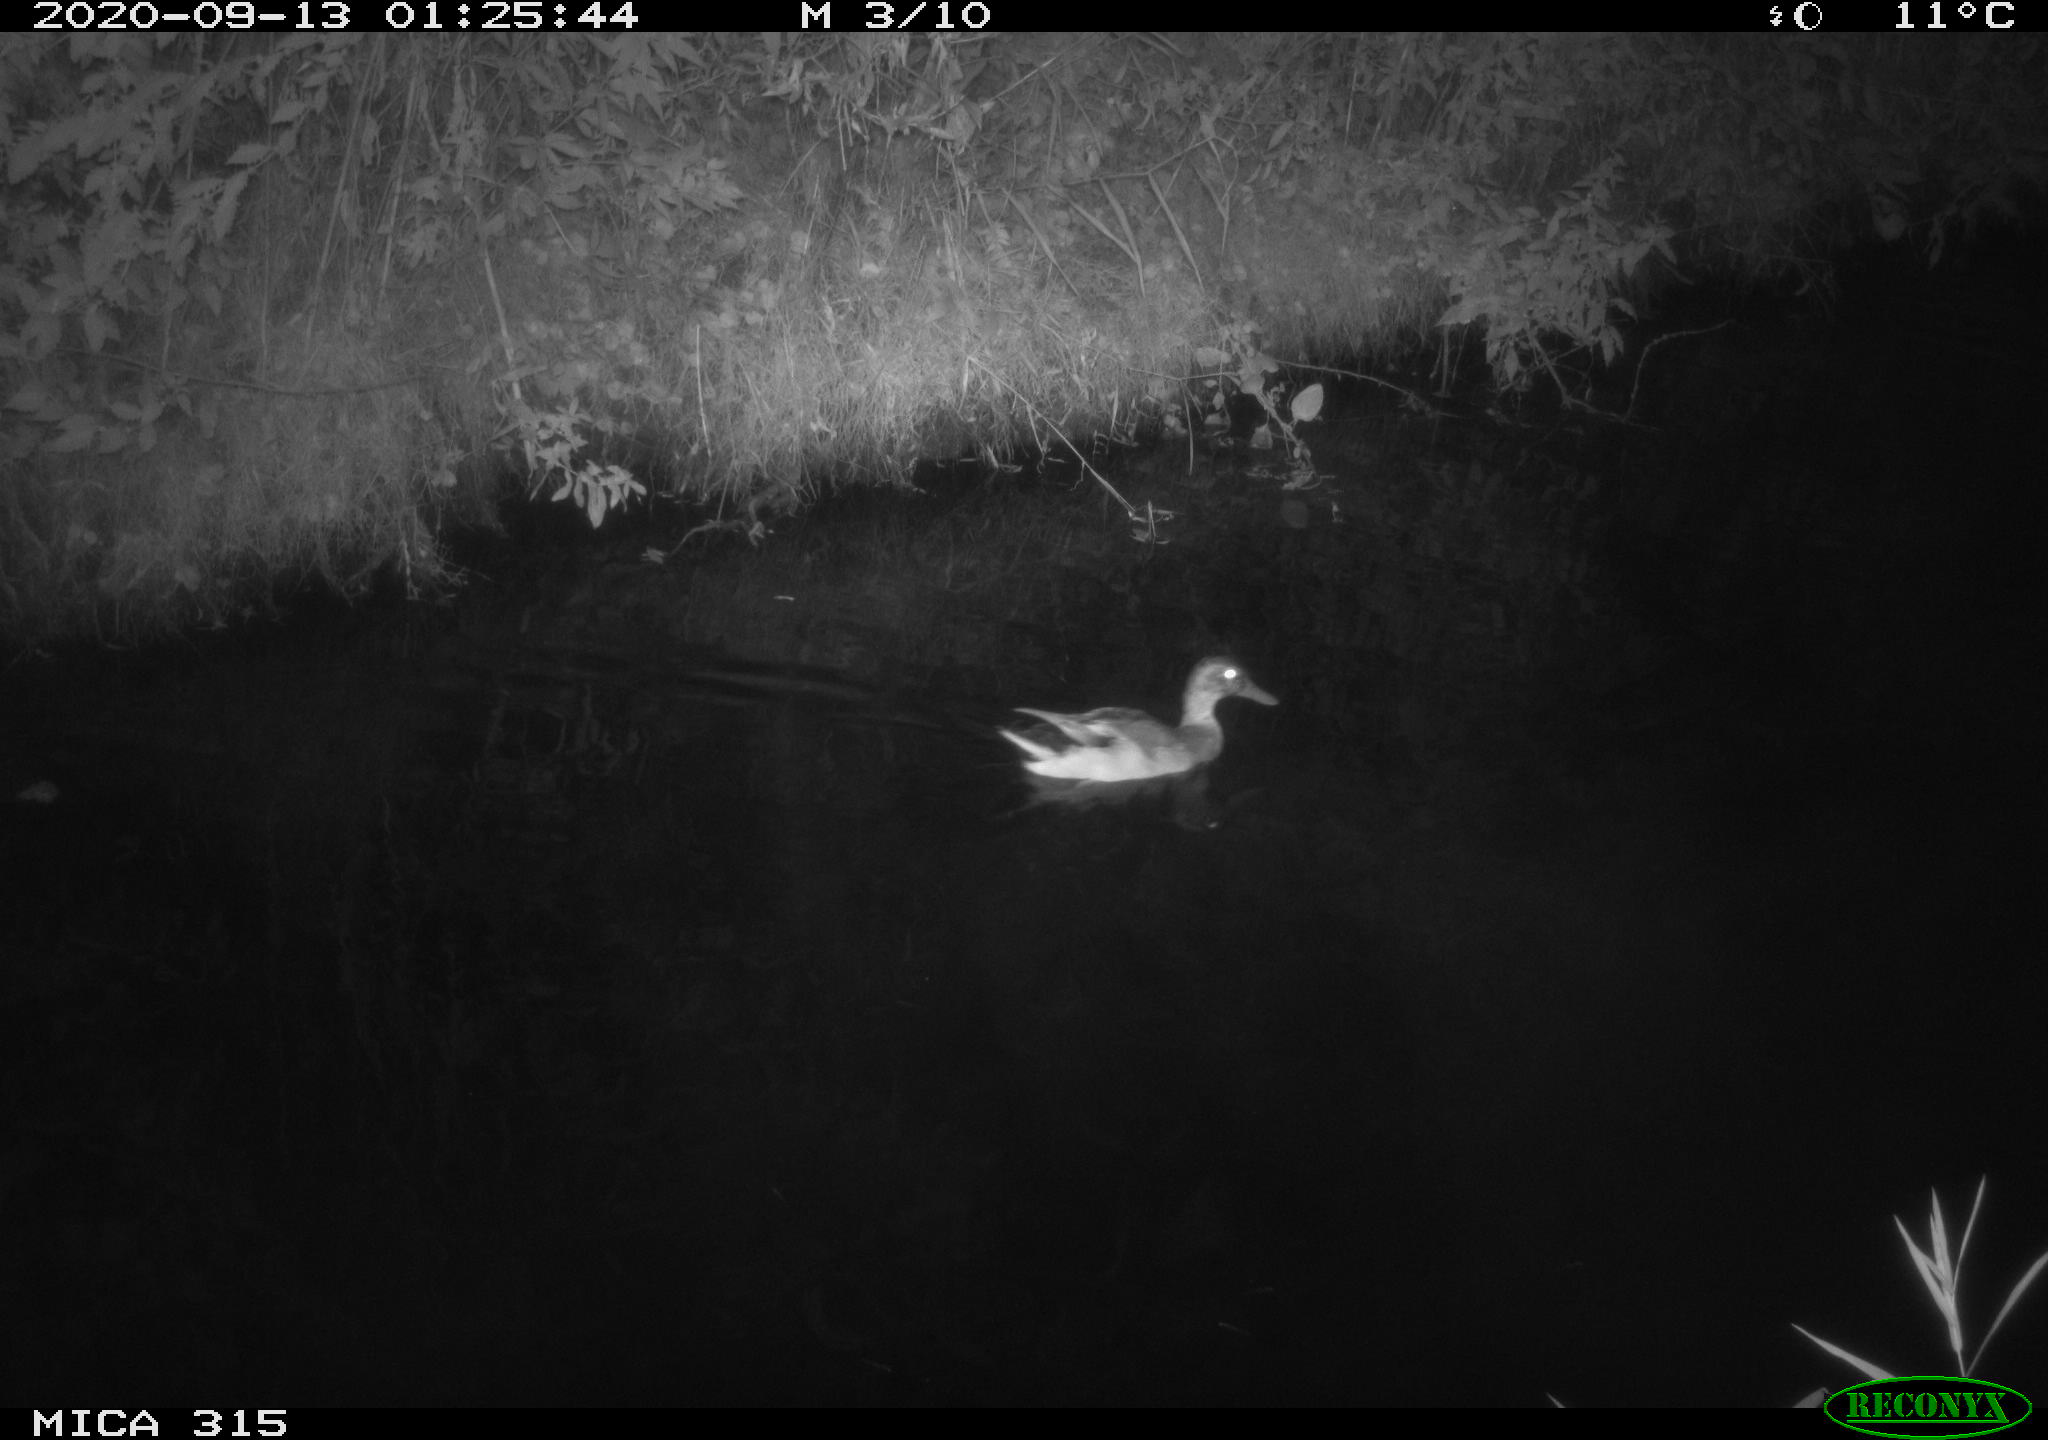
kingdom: Animalia
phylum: Chordata
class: Aves
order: Anseriformes
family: Anatidae
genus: Anas
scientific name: Anas platyrhynchos
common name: Mallard
